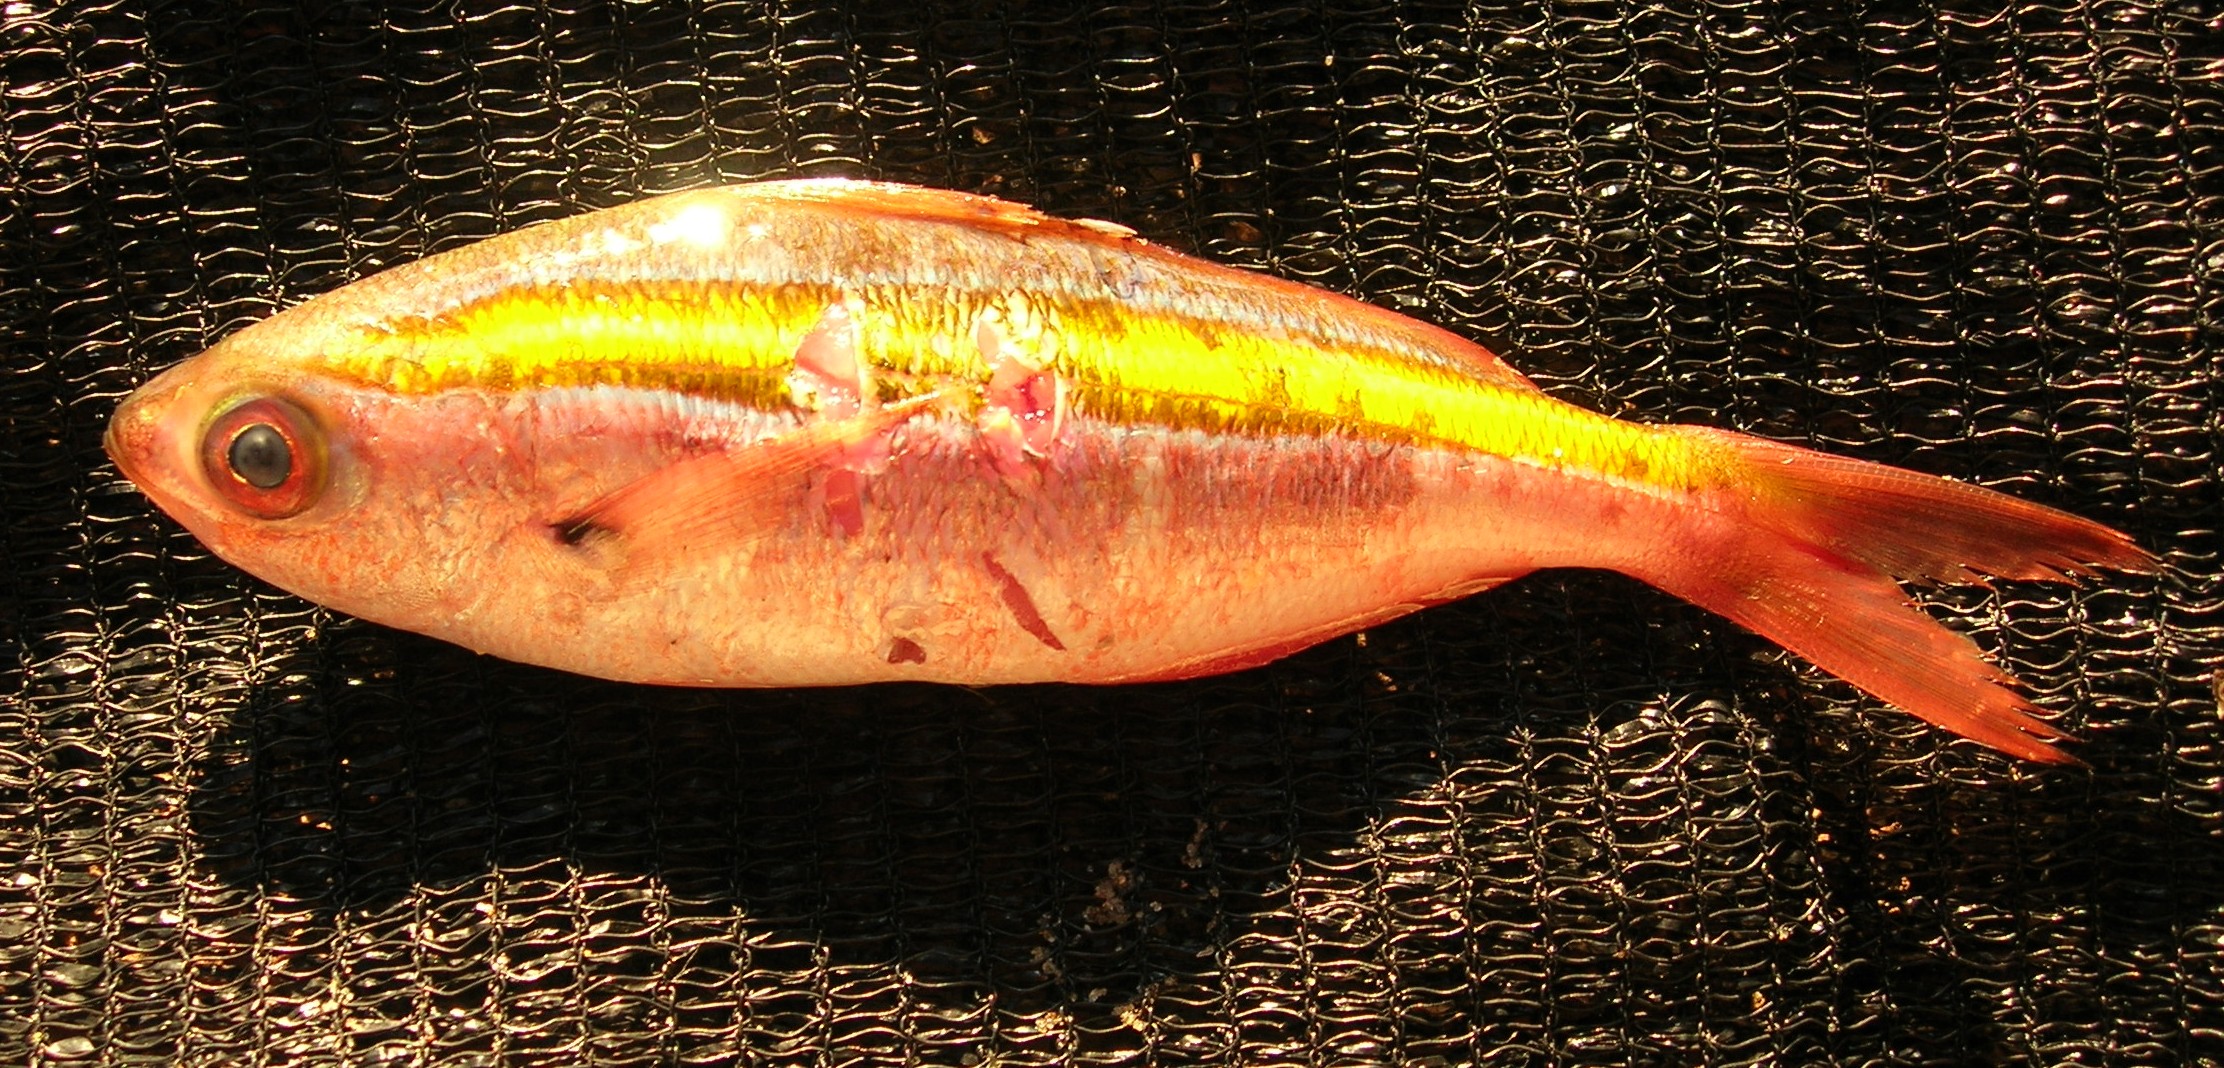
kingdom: Animalia
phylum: Chordata
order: Perciformes
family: Caesionidae
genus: Caesio
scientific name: Caesio caerulaurea
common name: Blue and gold fusilier
